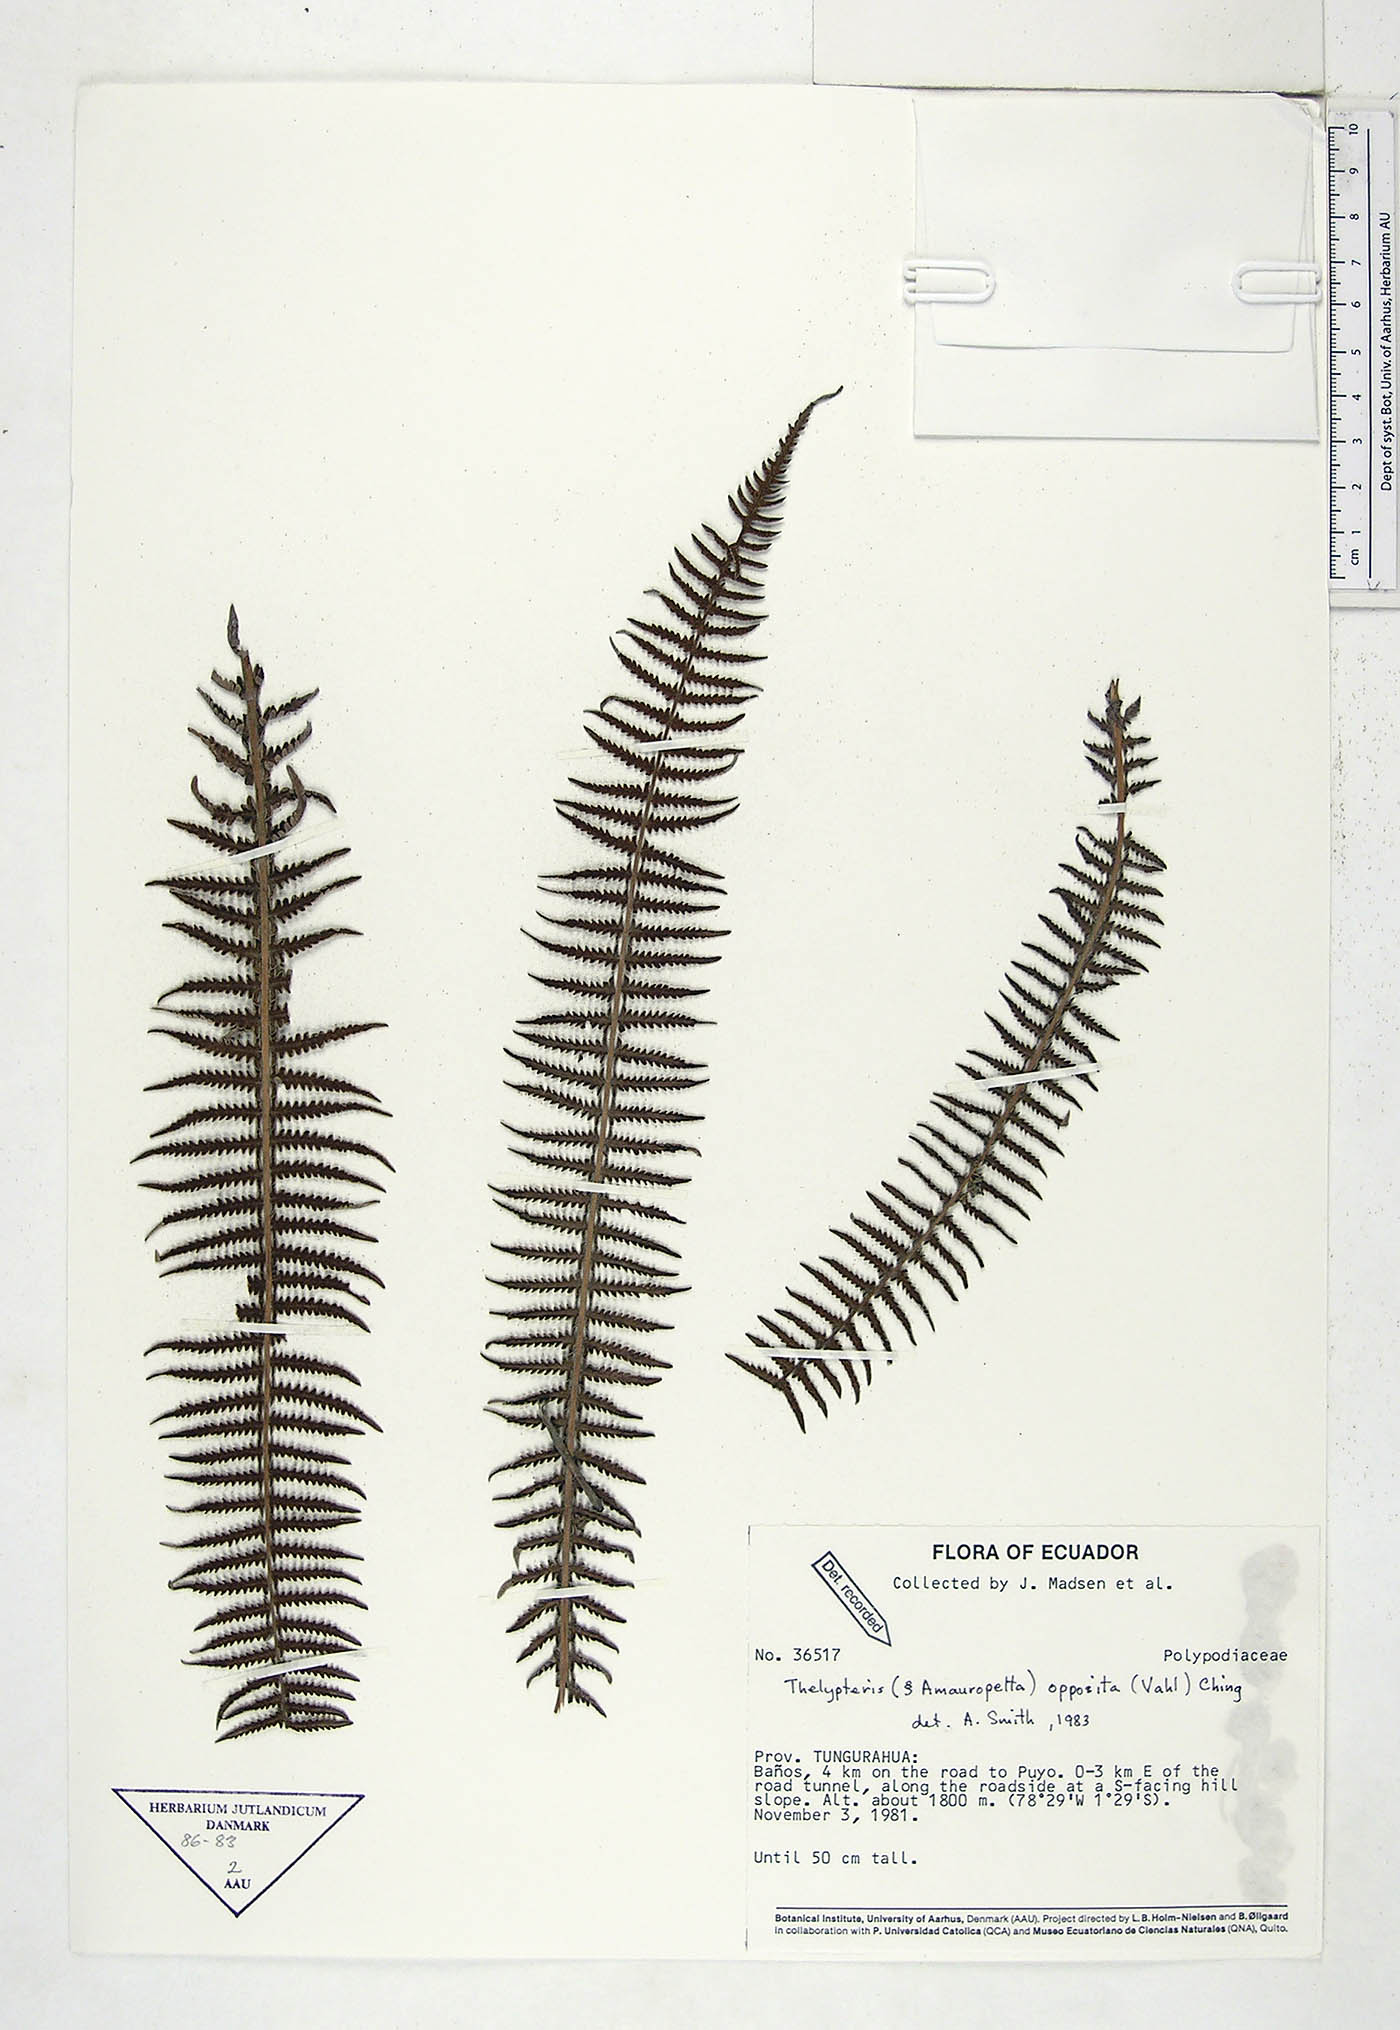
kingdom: Plantae
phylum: Tracheophyta
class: Polypodiopsida
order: Polypodiales
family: Thelypteridaceae
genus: Amauropelta
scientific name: Amauropelta opposita
